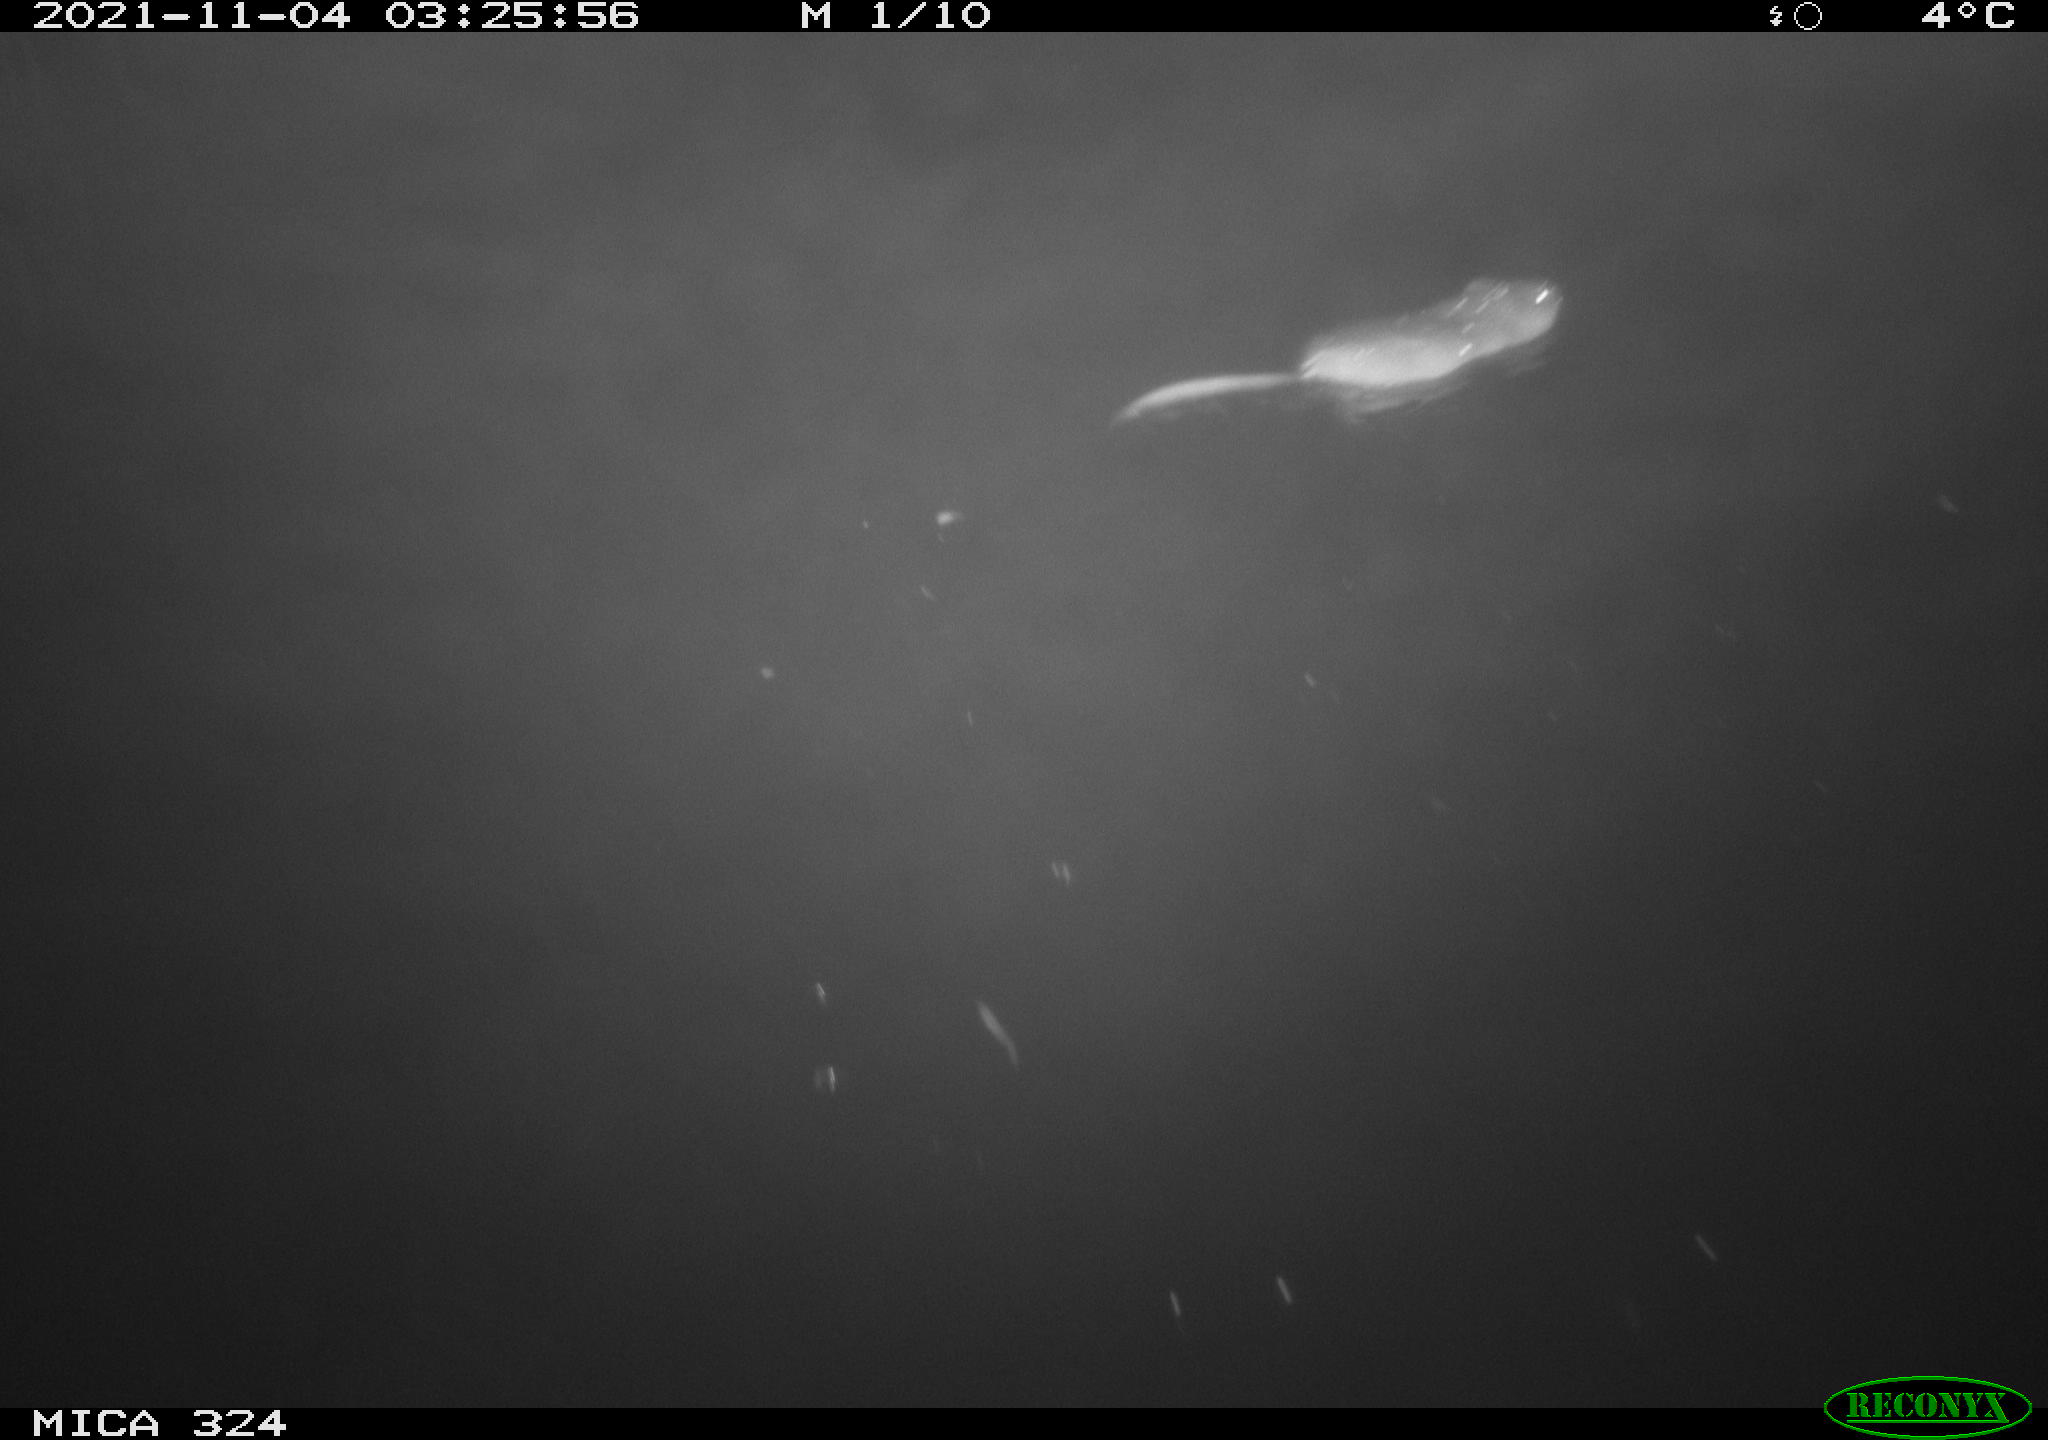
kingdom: Animalia
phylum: Chordata
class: Mammalia
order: Rodentia
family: Cricetidae
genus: Ondatra
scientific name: Ondatra zibethicus
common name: Muskrat
